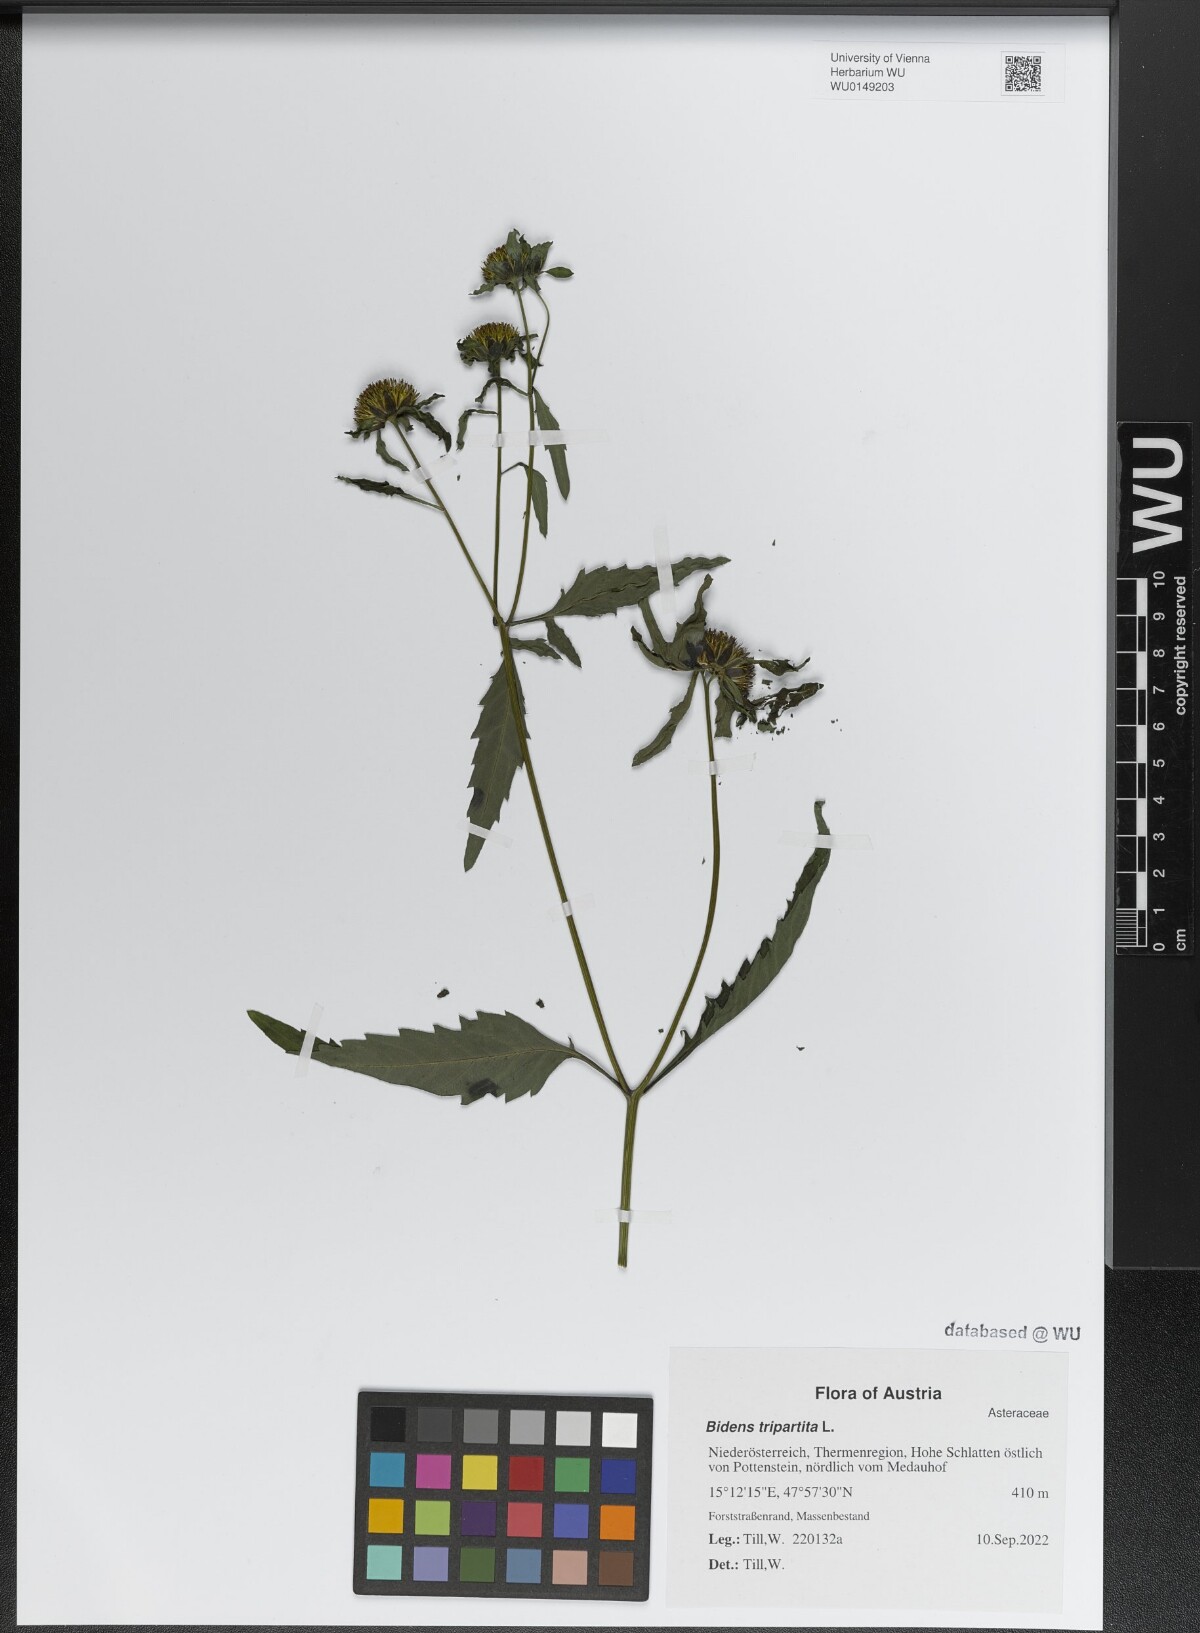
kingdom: Plantae
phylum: Tracheophyta
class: Magnoliopsida
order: Asterales
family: Asteraceae
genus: Bidens
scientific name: Bidens tripartita
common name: Trifid bur-marigold
